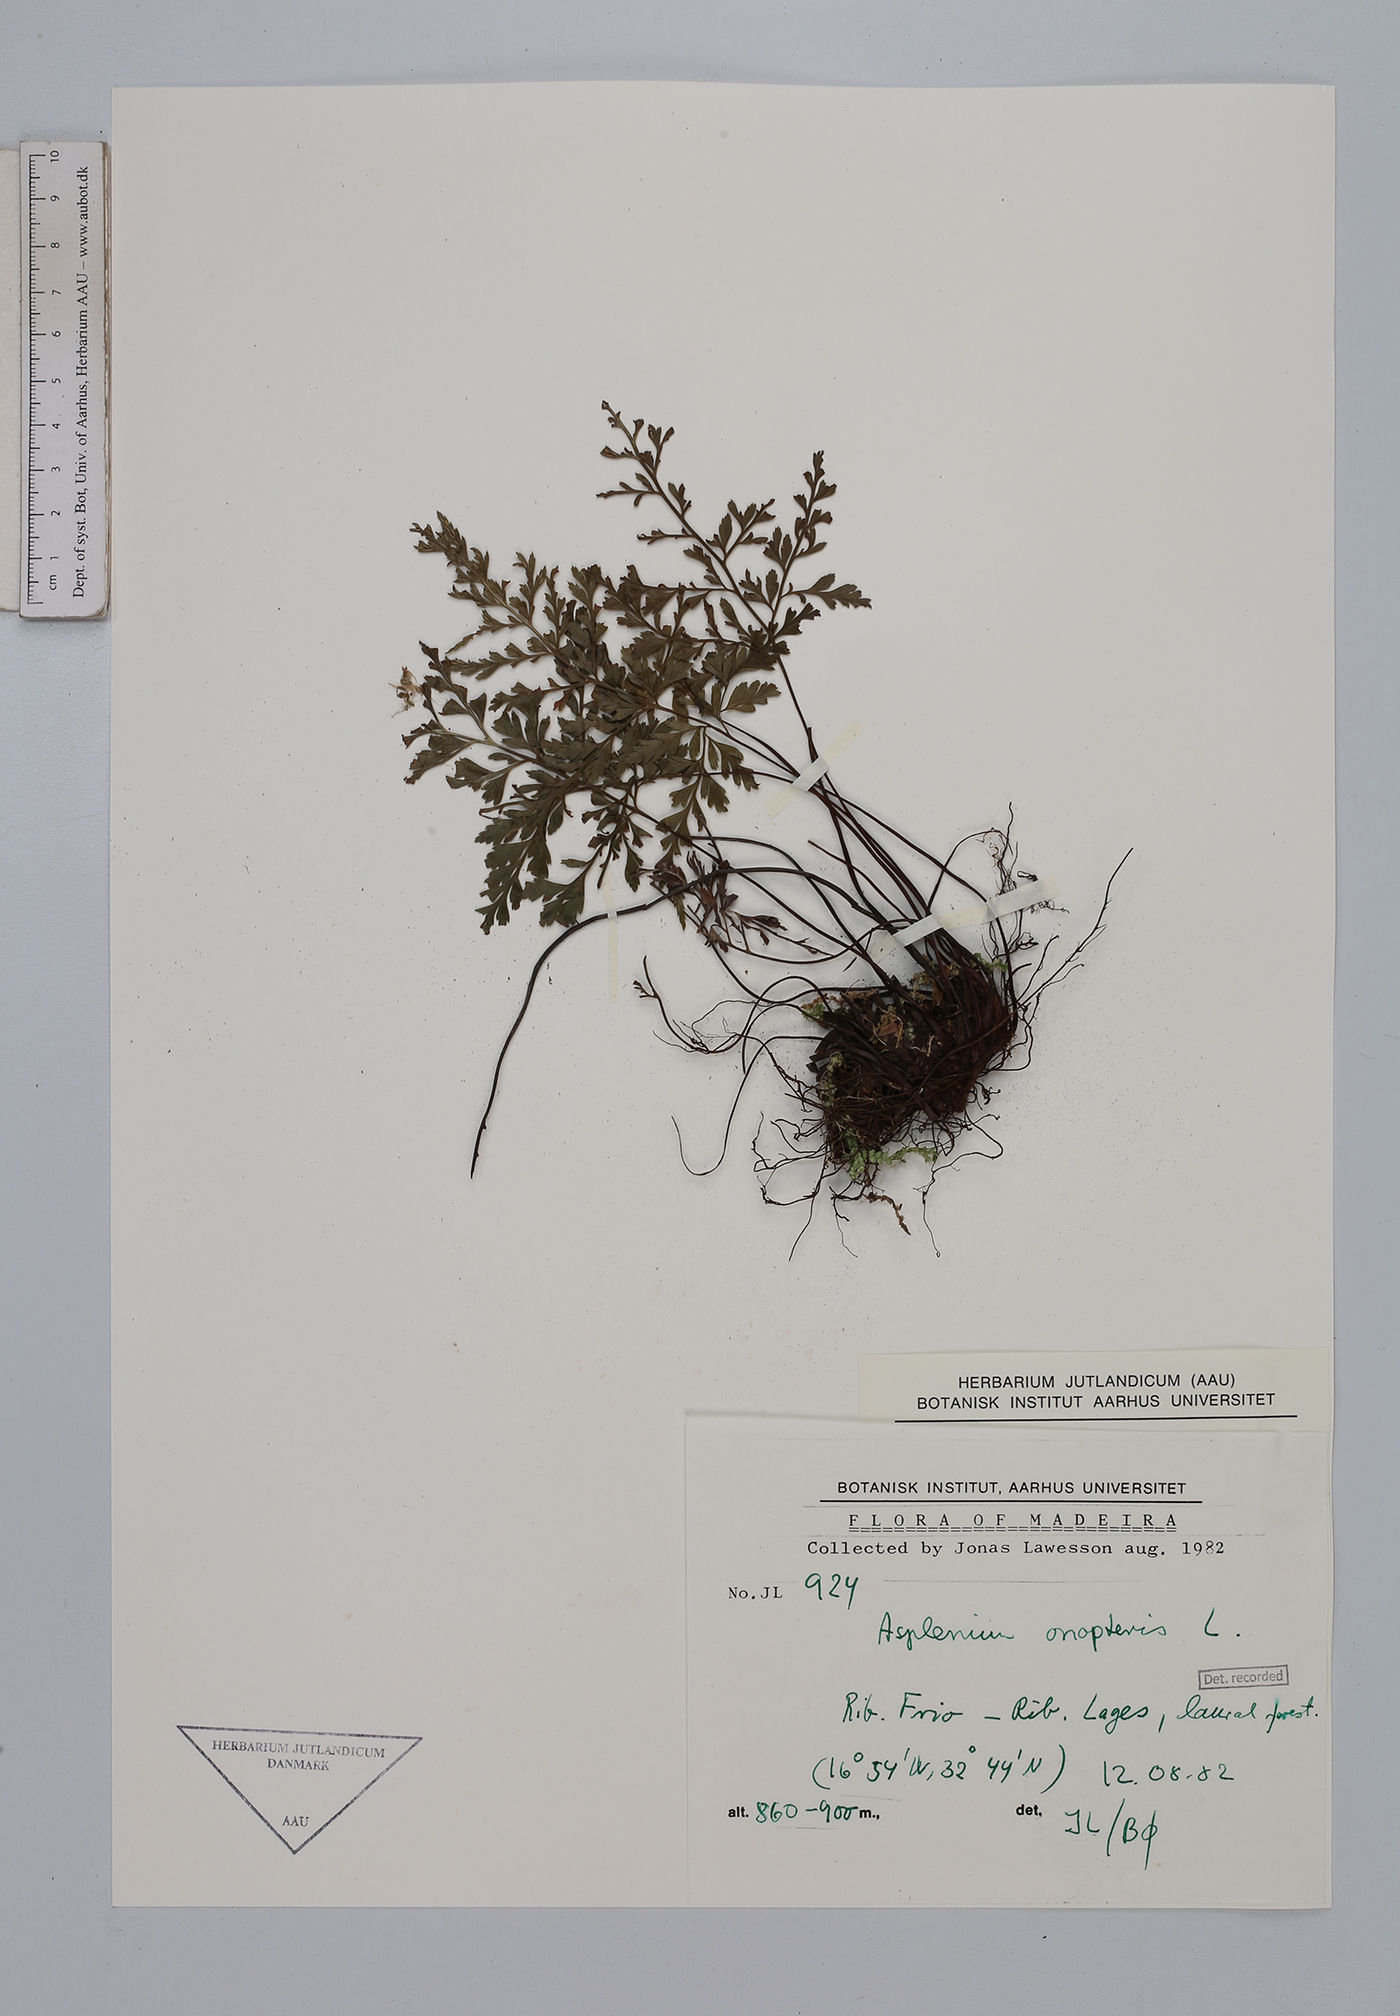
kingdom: Plantae
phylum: Tracheophyta
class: Polypodiopsida
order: Polypodiales
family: Aspleniaceae
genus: Asplenium
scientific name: Asplenium onopteris
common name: Irish spleenwort
